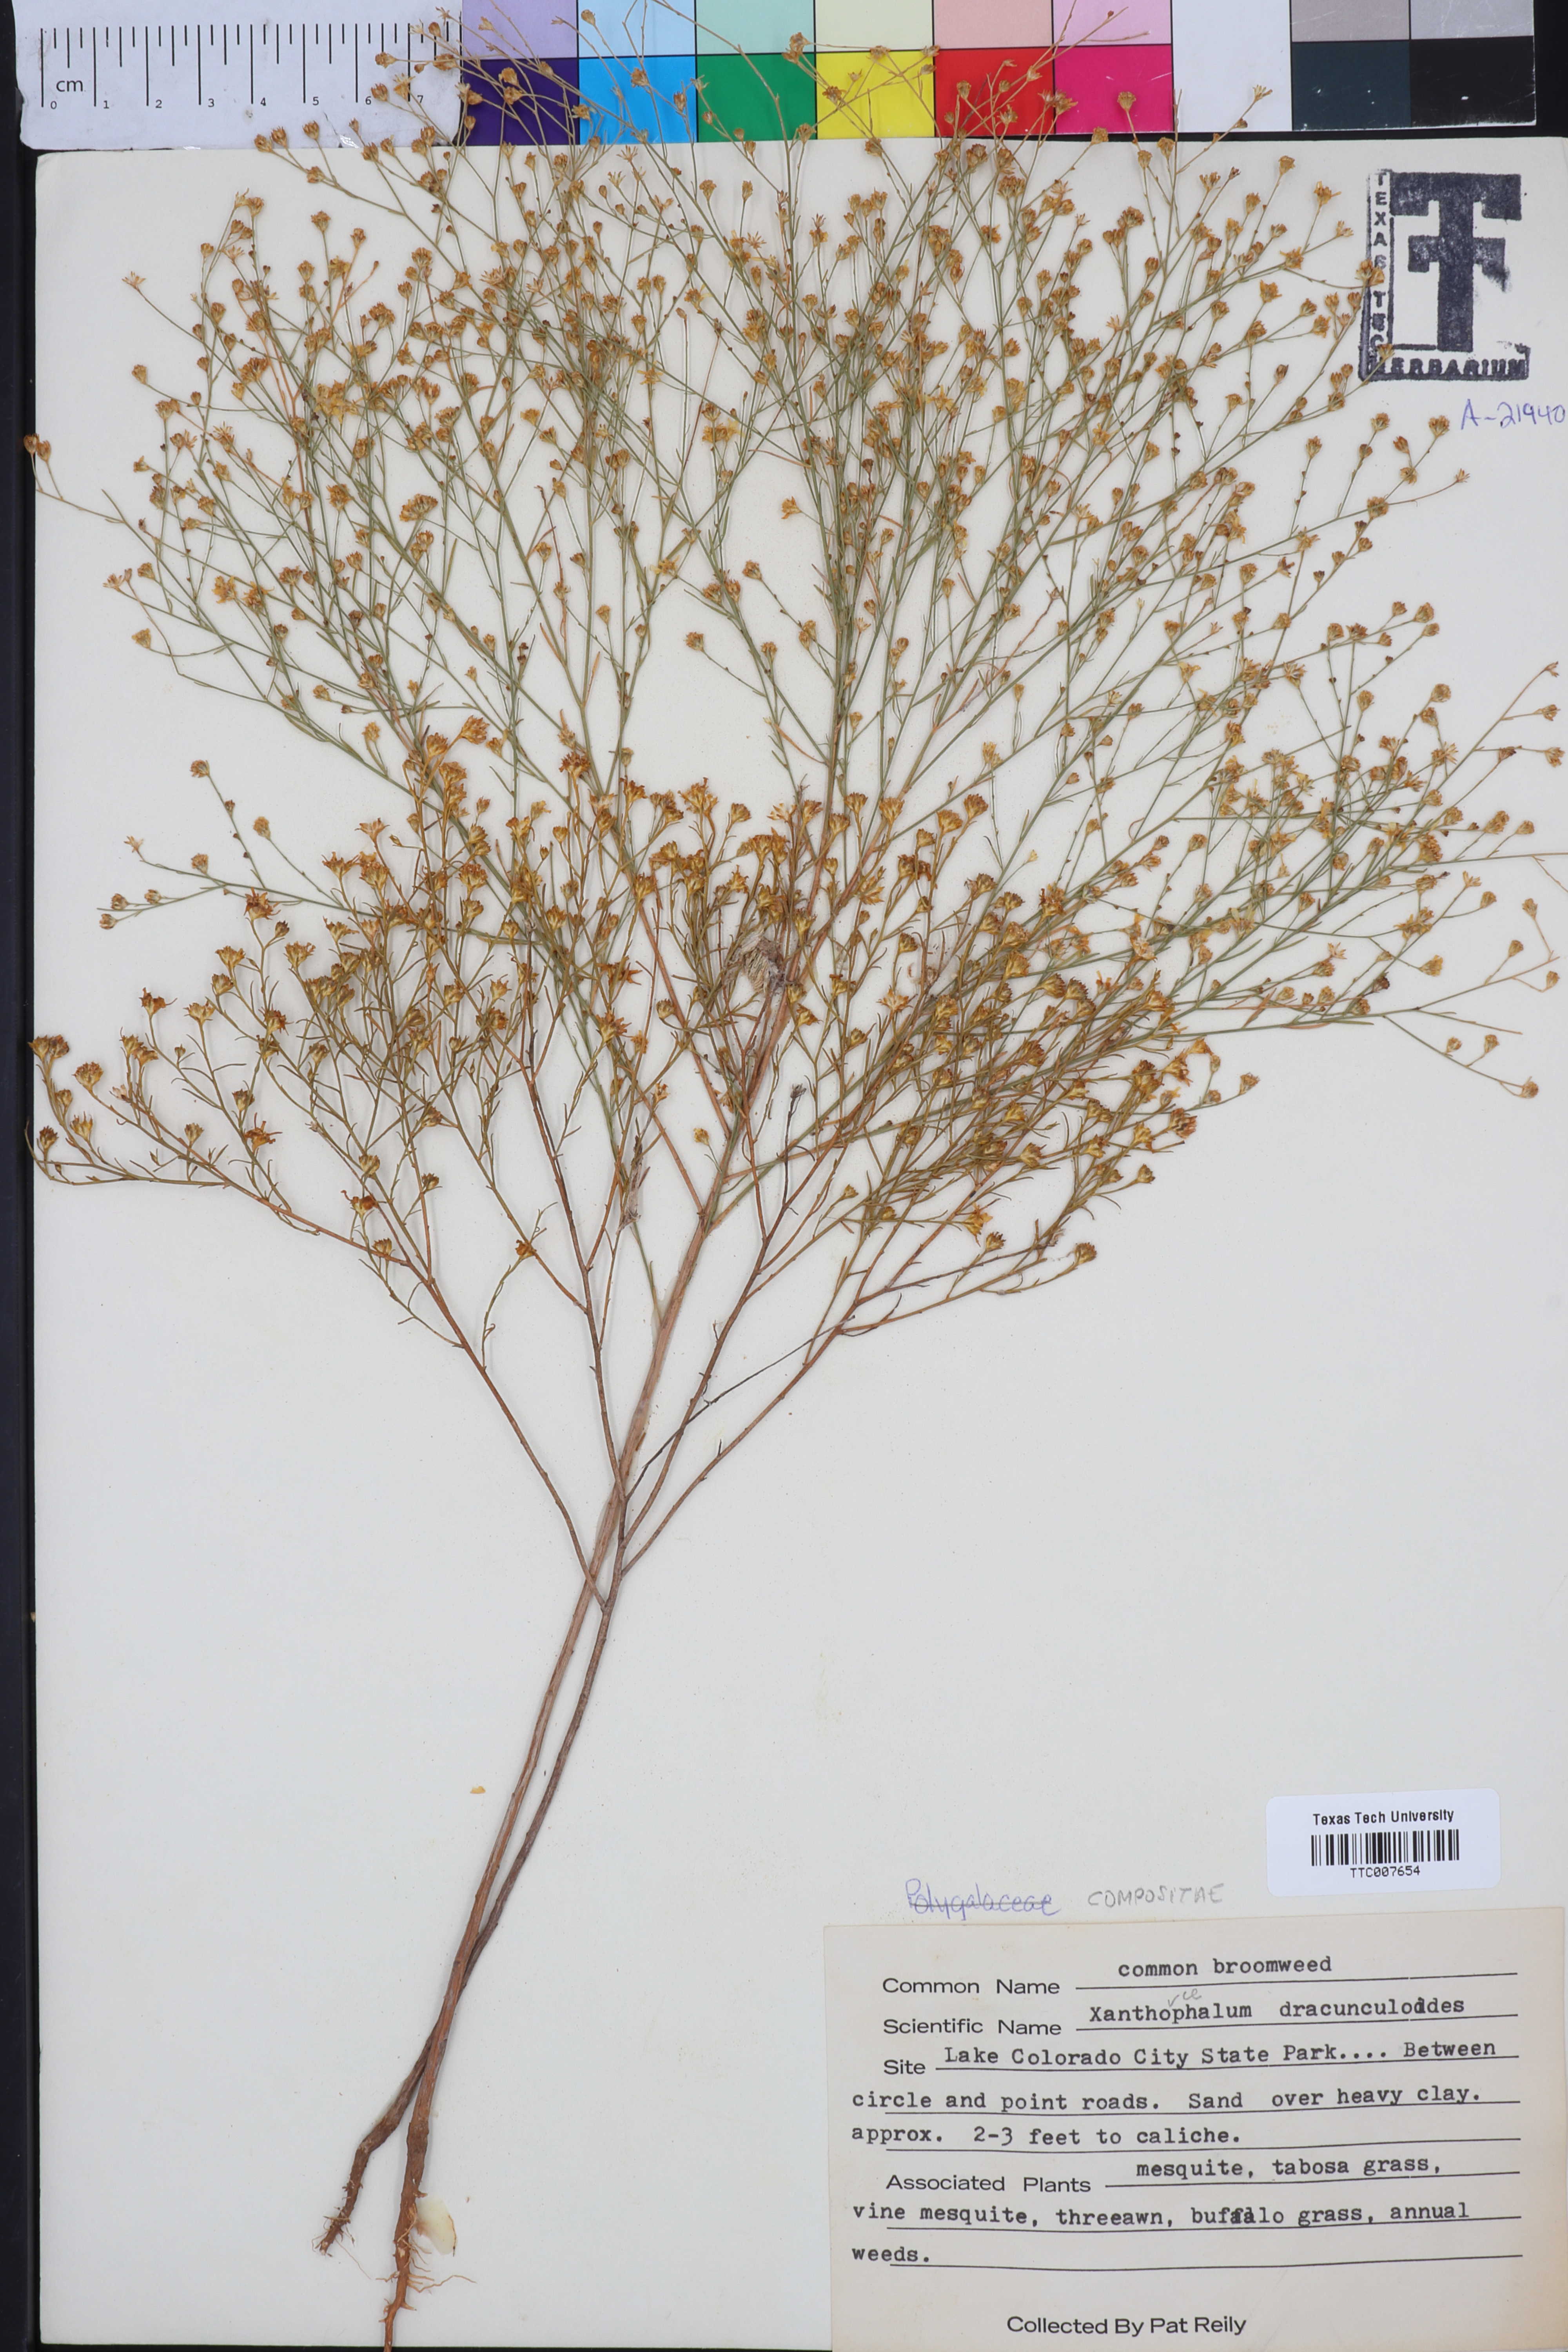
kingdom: Plantae
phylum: Tracheophyta
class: Magnoliopsida
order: Asterales
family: Asteraceae
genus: Amphiachyris
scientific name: Amphiachyris dracunculoides
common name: Broomweed
